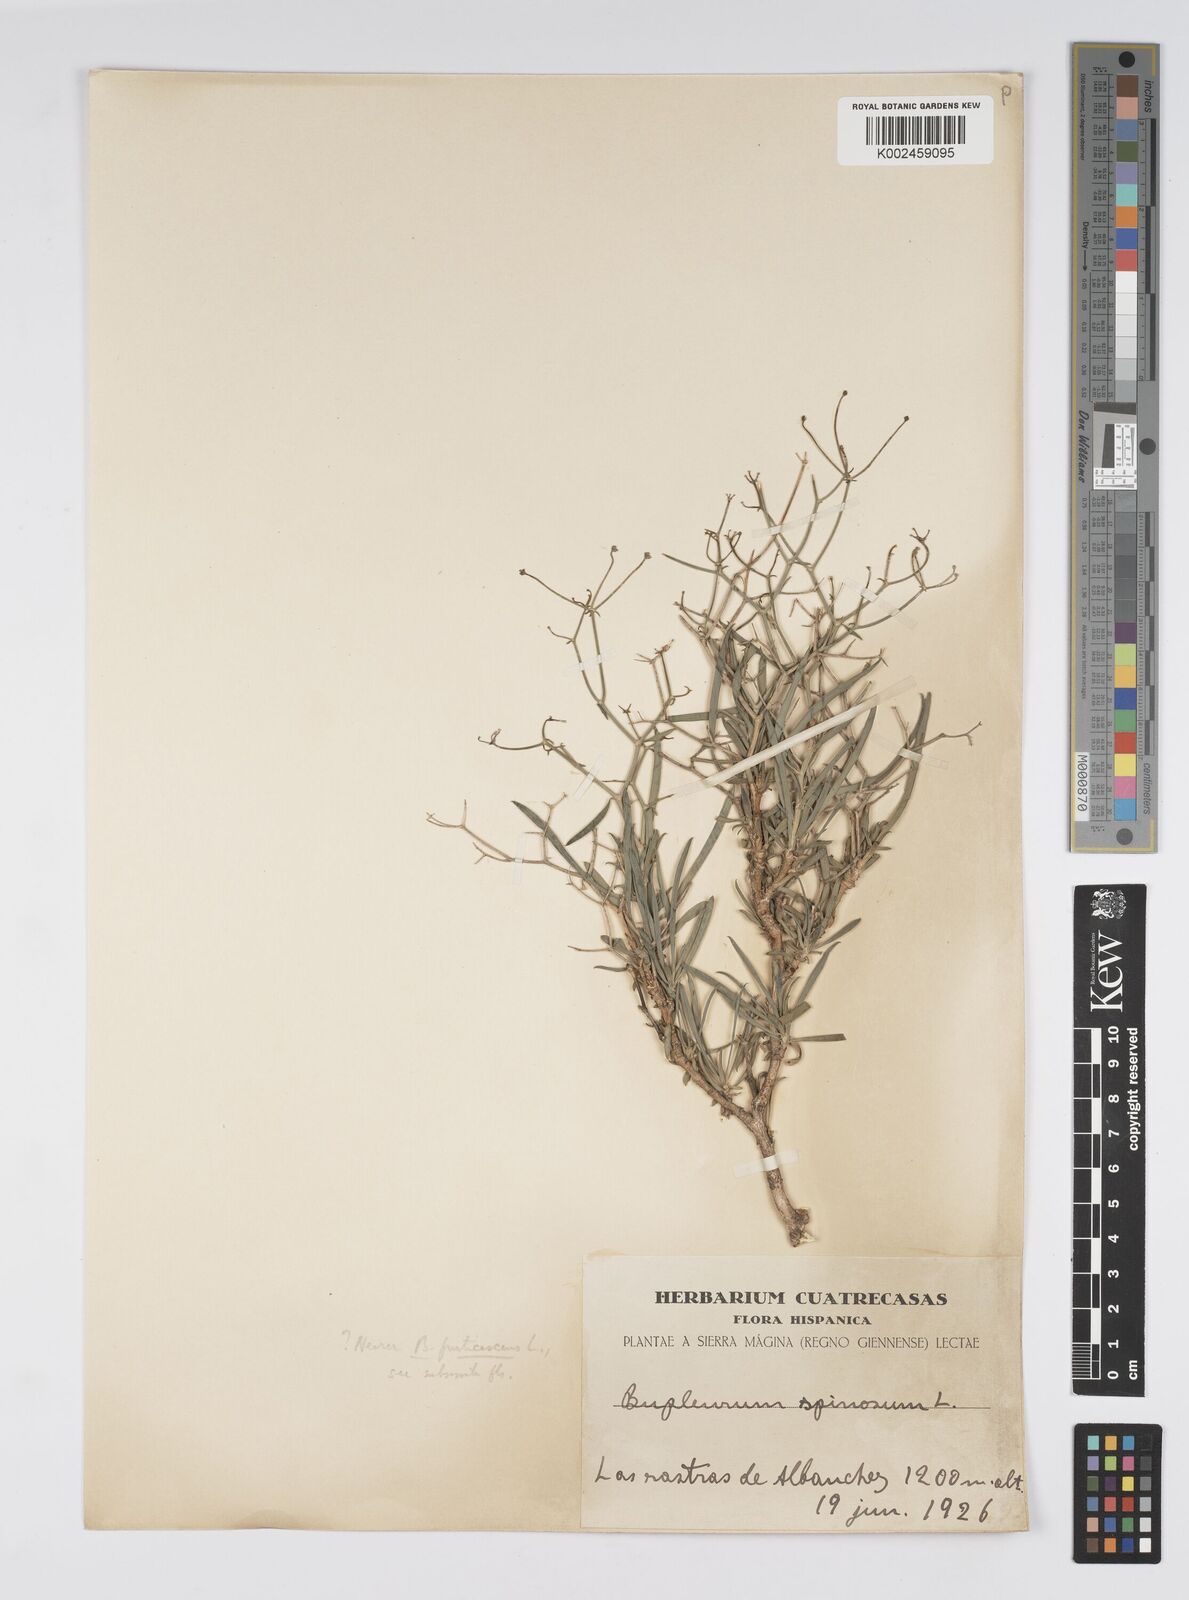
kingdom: Plantae
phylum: Tracheophyta
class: Magnoliopsida
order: Apiales
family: Apiaceae
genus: Bupleurum
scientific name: Bupleurum fruticescens
